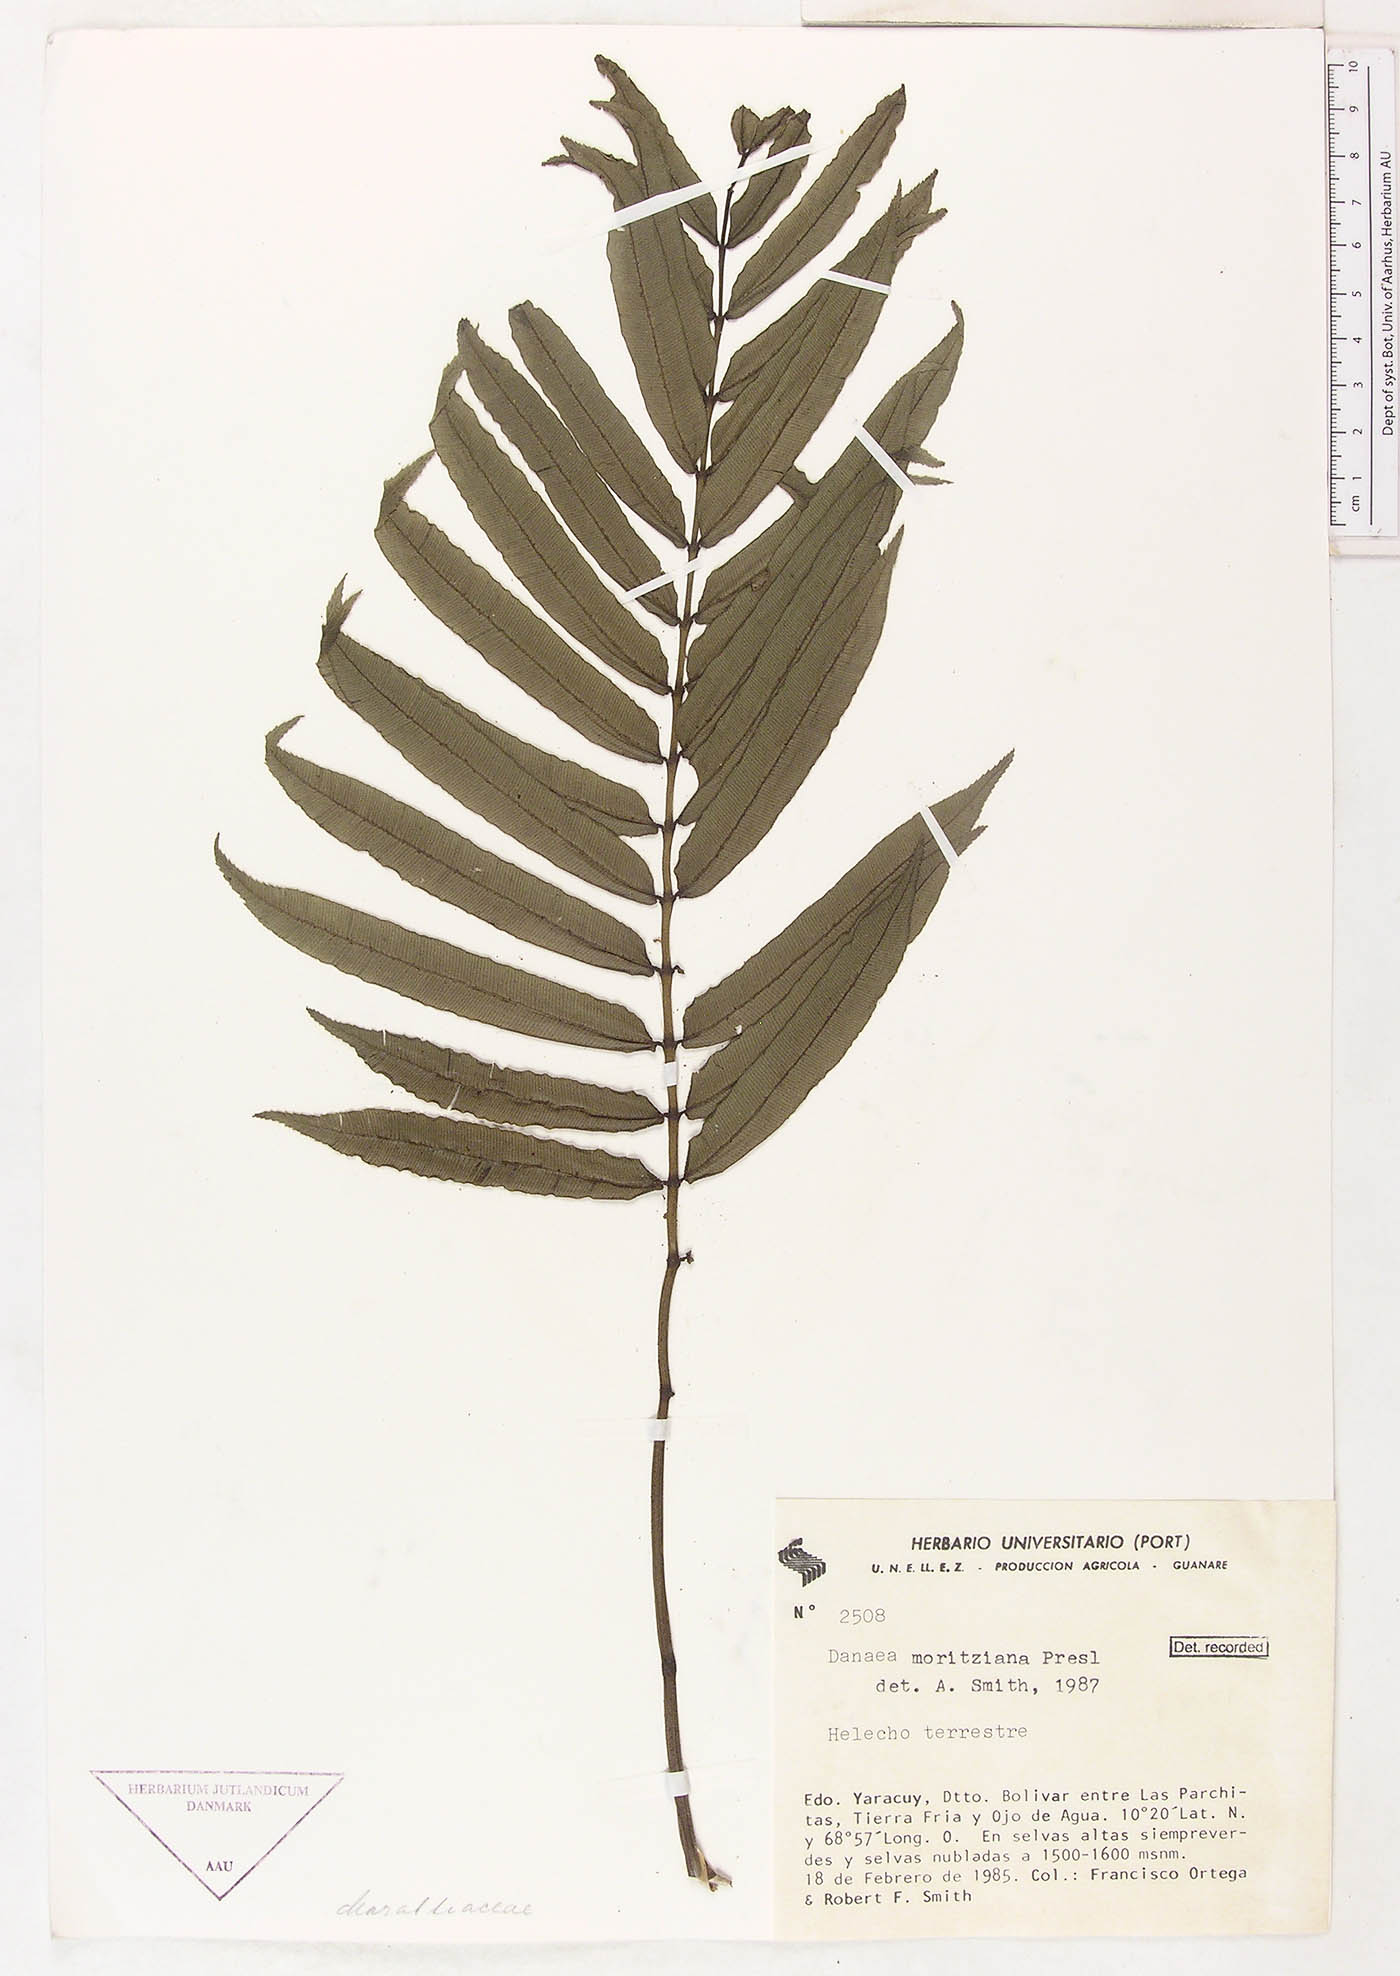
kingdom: Plantae
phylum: Tracheophyta
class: Polypodiopsida
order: Marattiales
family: Marattiaceae
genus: Danaea
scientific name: Danaea moritziana
